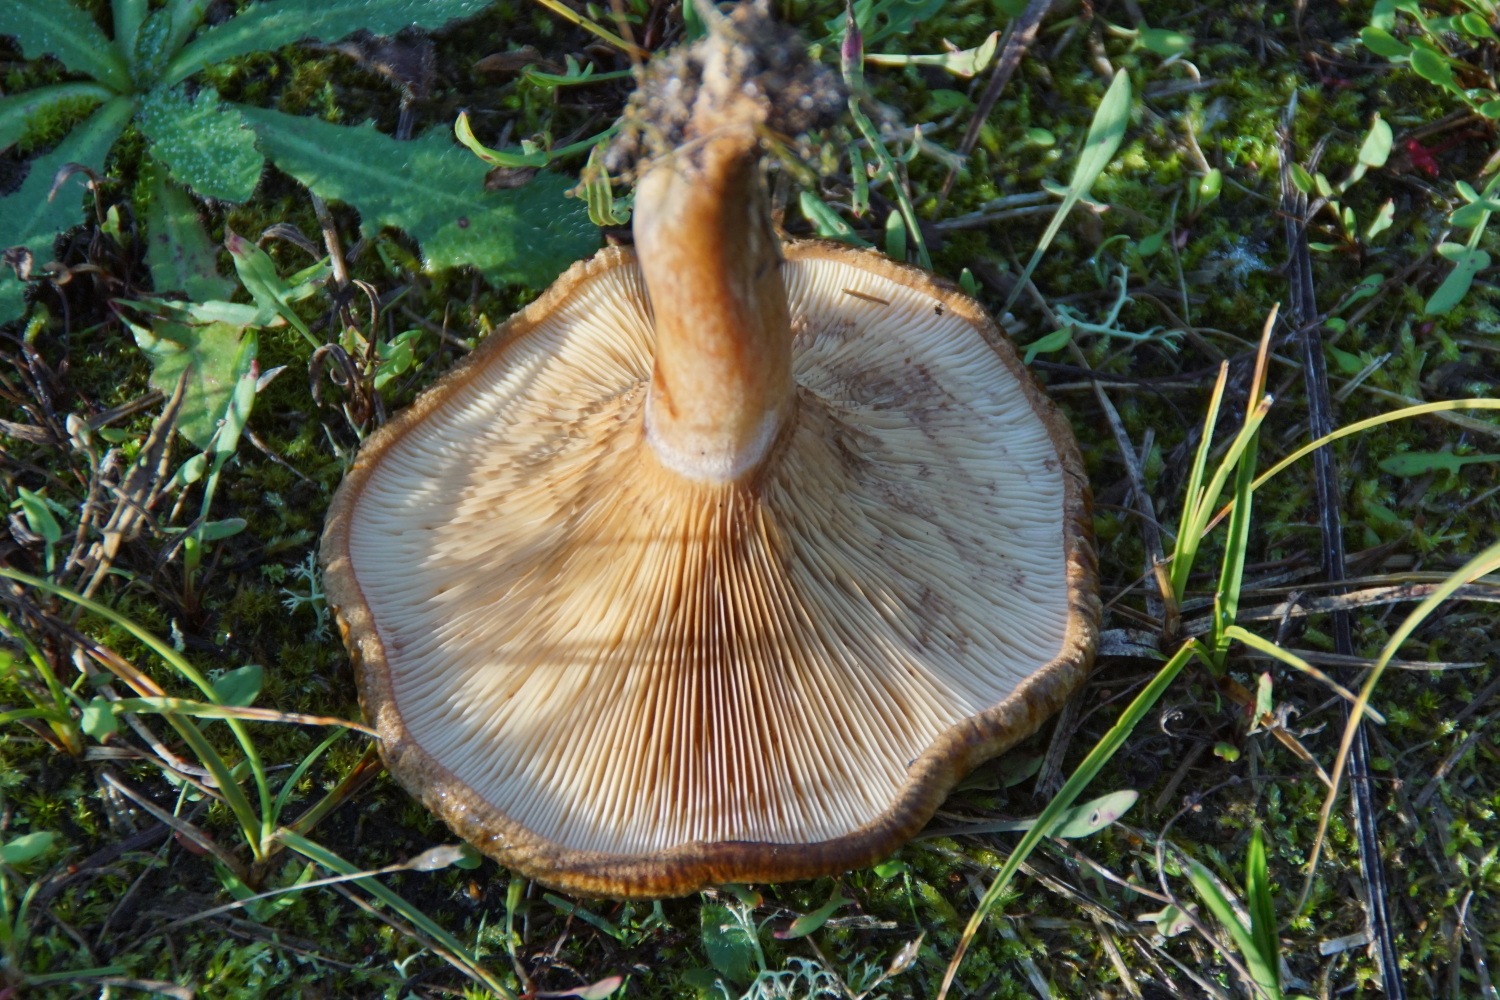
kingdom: Fungi
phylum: Basidiomycota
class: Agaricomycetes
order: Boletales
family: Paxillaceae
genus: Paxillus
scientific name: Paxillus involutus
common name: almindelig netbladhat
